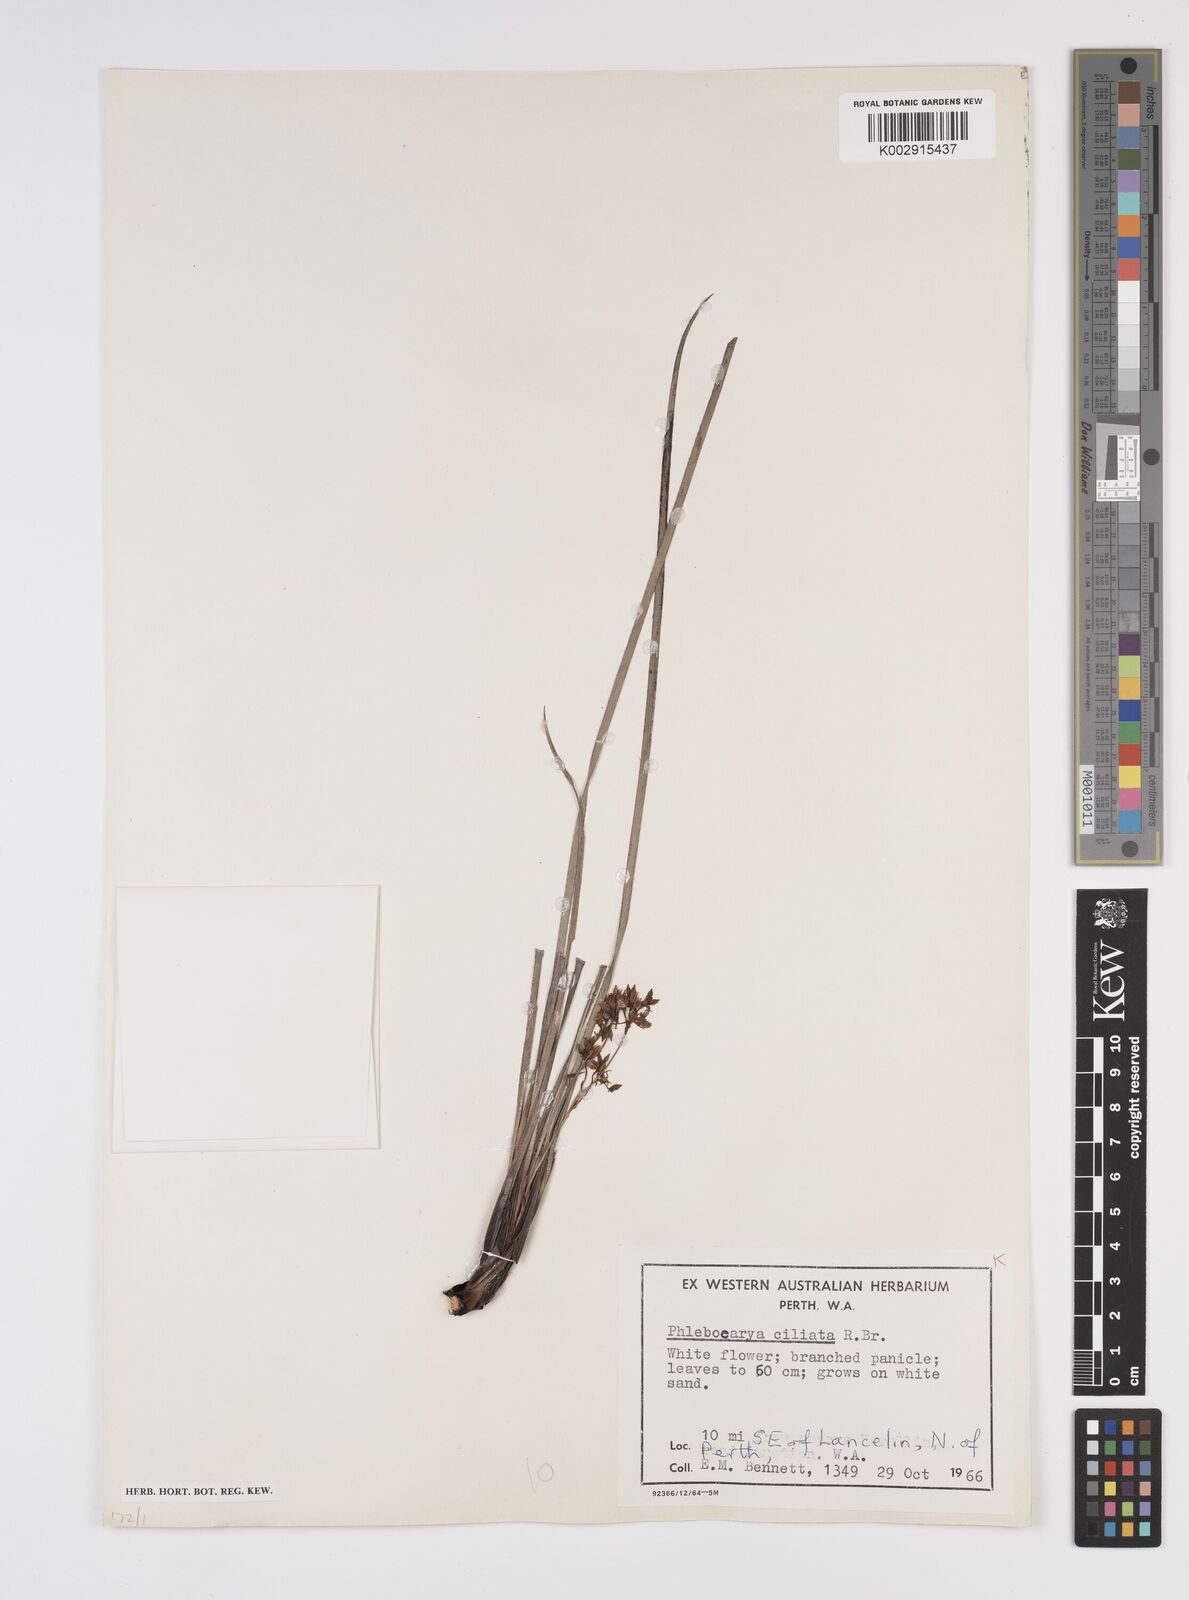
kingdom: Plantae
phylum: Tracheophyta
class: Liliopsida
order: Commelinales
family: Haemodoraceae
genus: Phlebocarya
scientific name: Phlebocarya ciliata
